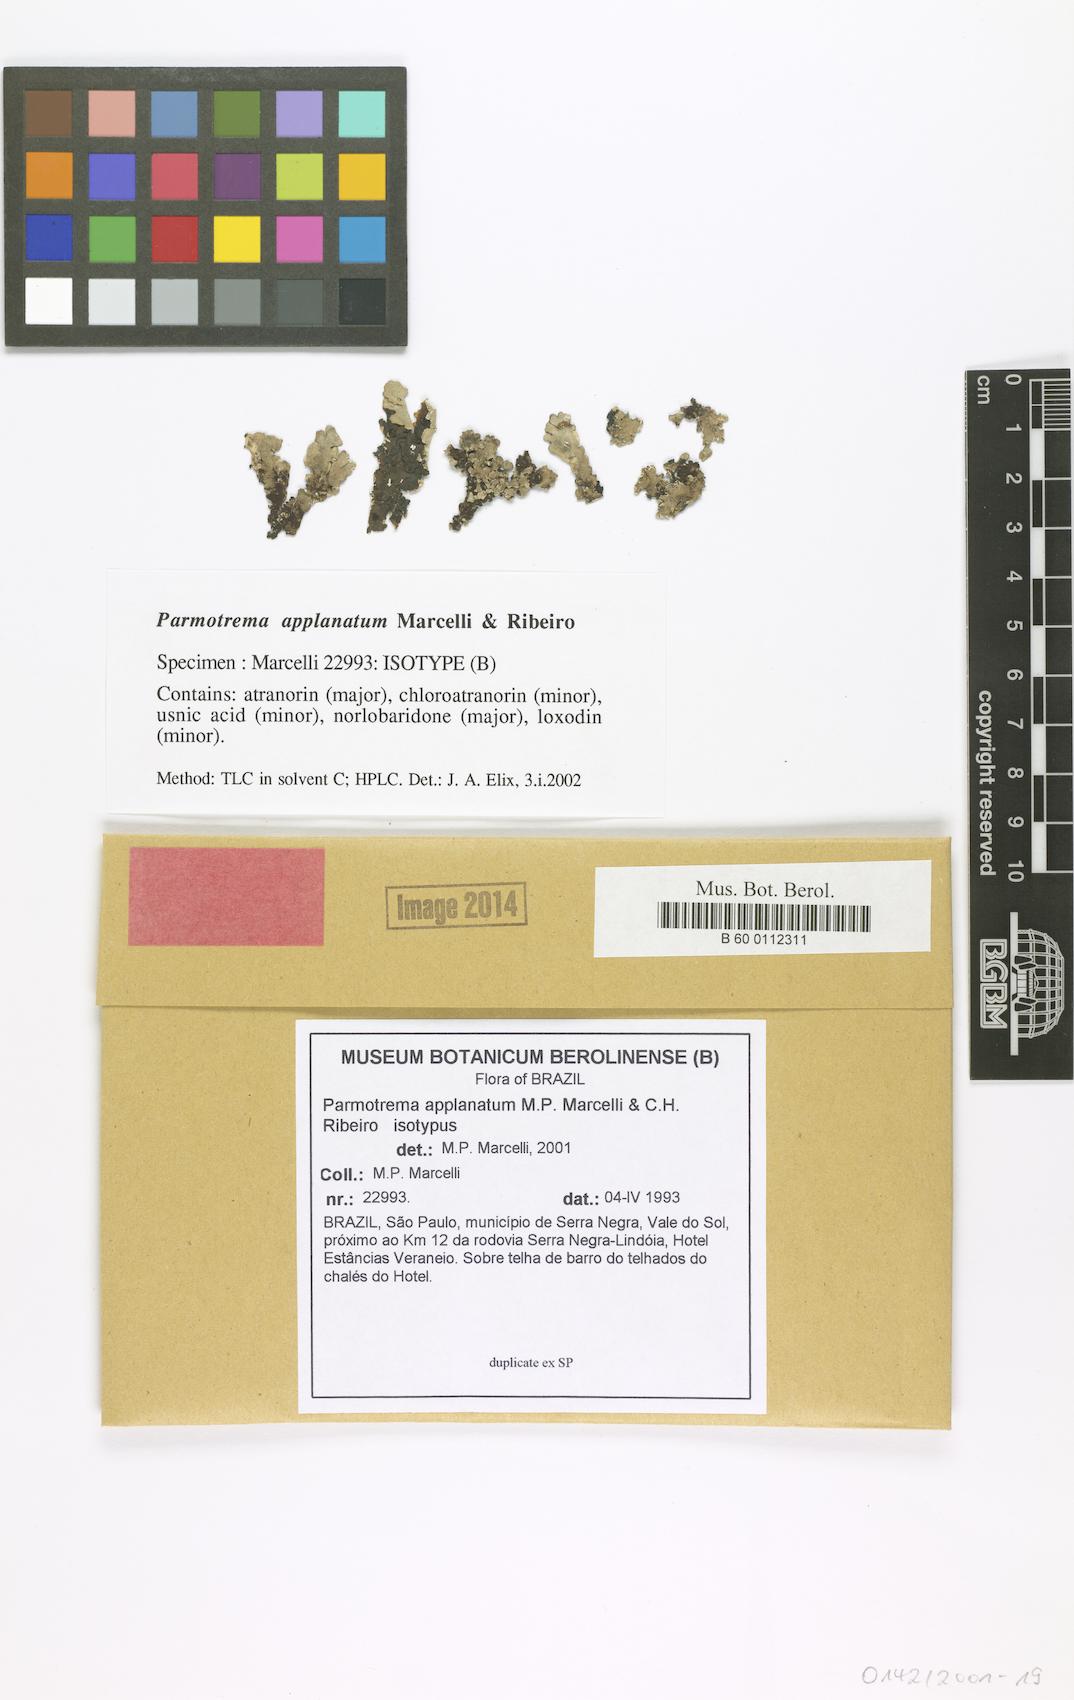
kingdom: Fungi
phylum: Ascomycota
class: Lecanoromycetes
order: Lecanorales
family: Parmeliaceae
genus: Parmotrema
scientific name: Parmotrema applanatum
